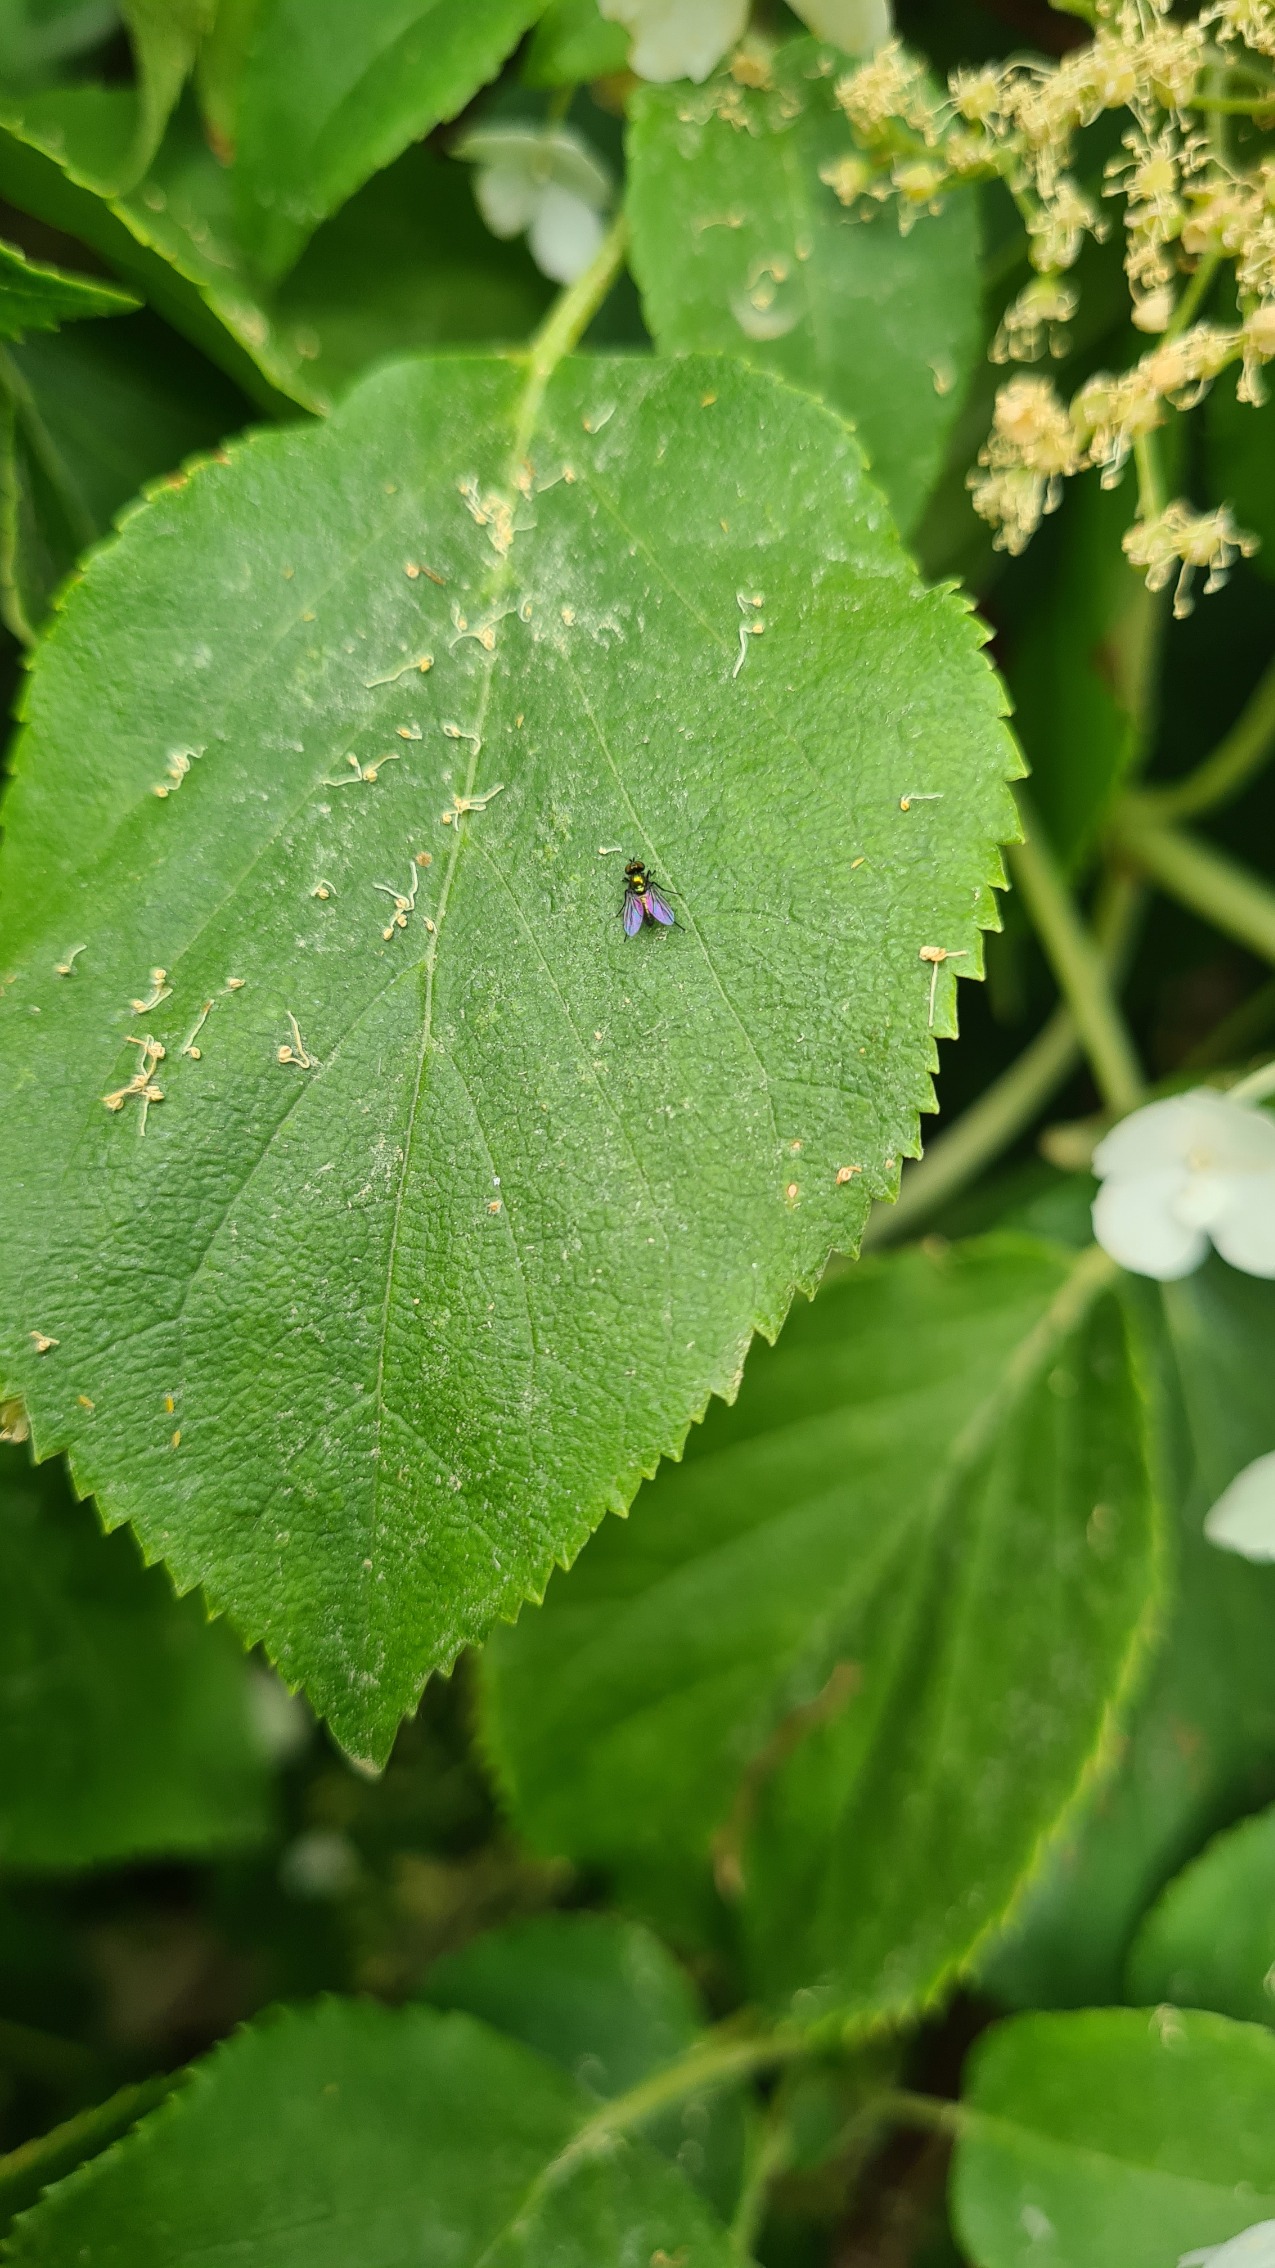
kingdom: Animalia
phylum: Arthropoda
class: Insecta
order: Diptera
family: Dolichopodidae
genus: Chrysotus
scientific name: Chrysotus
